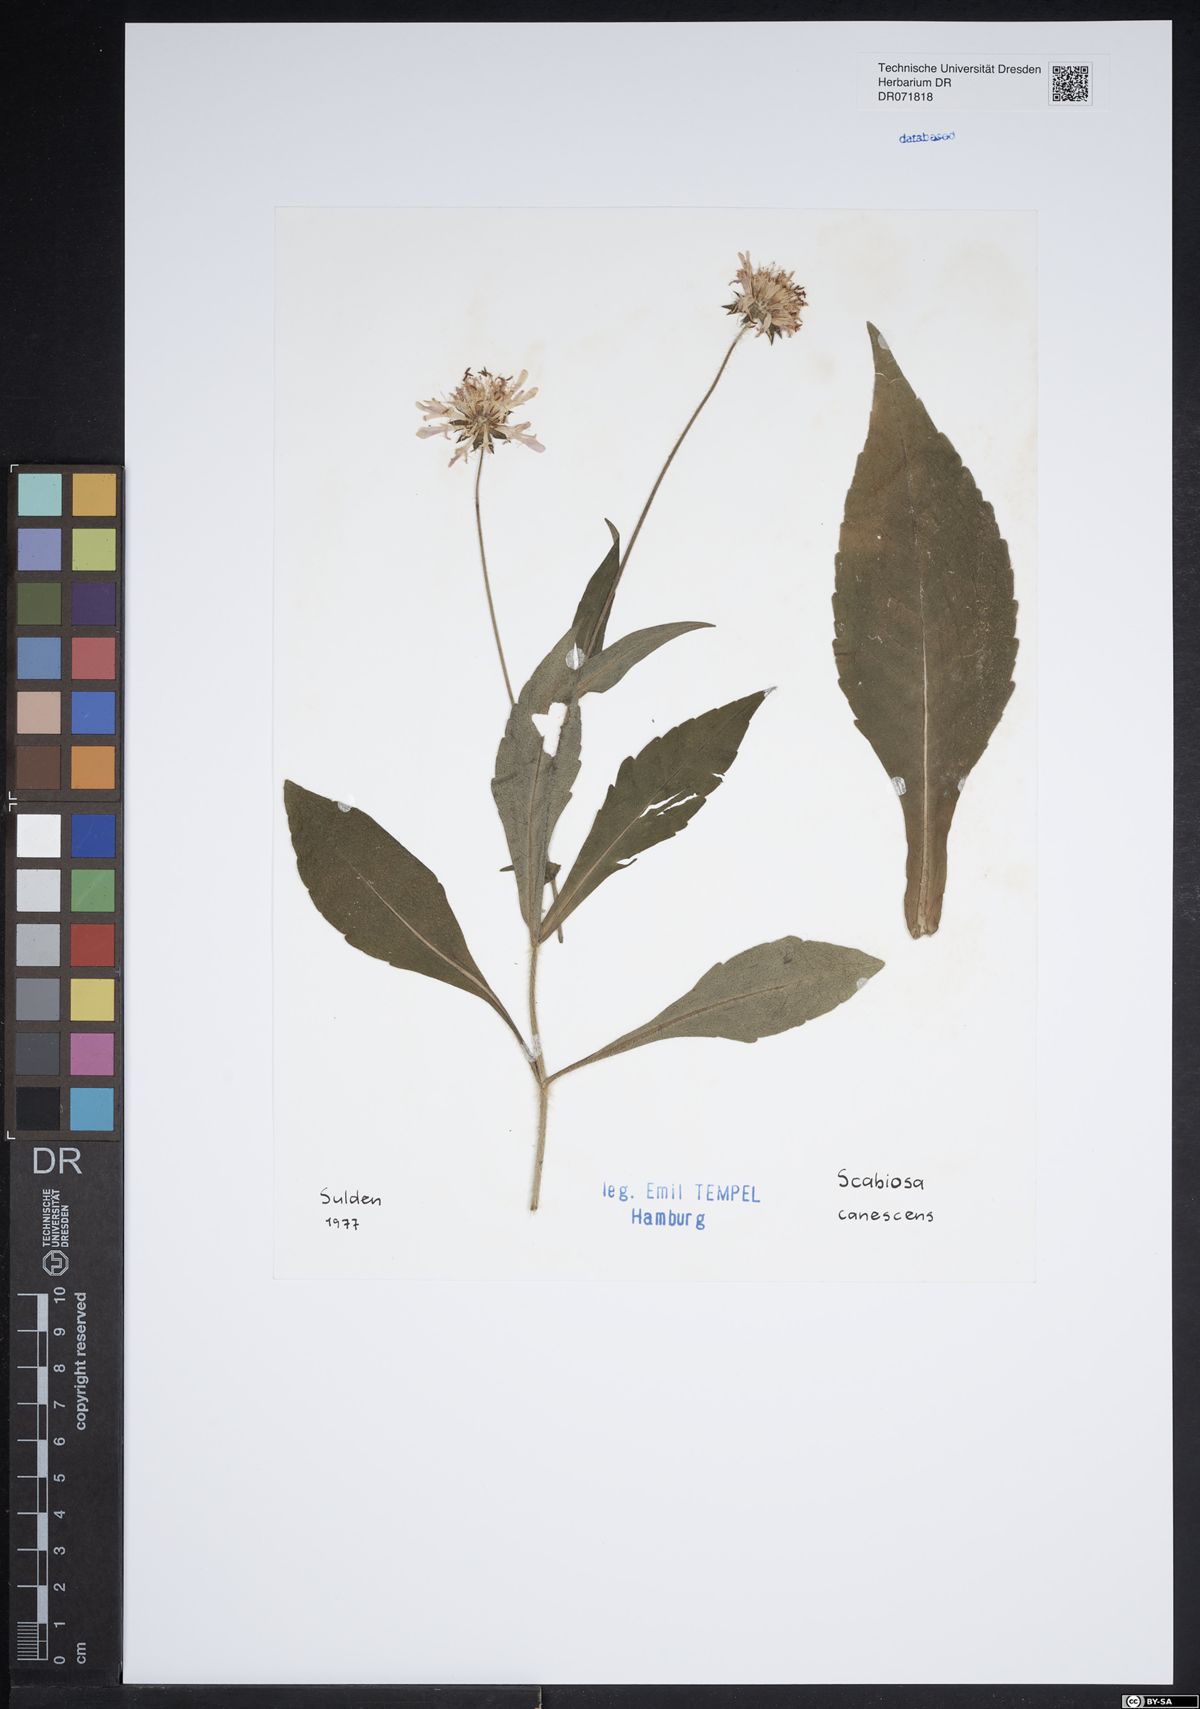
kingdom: Plantae
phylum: Tracheophyta
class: Magnoliopsida
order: Dipsacales
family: Caprifoliaceae
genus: Scabiosa
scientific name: Scabiosa canescens
